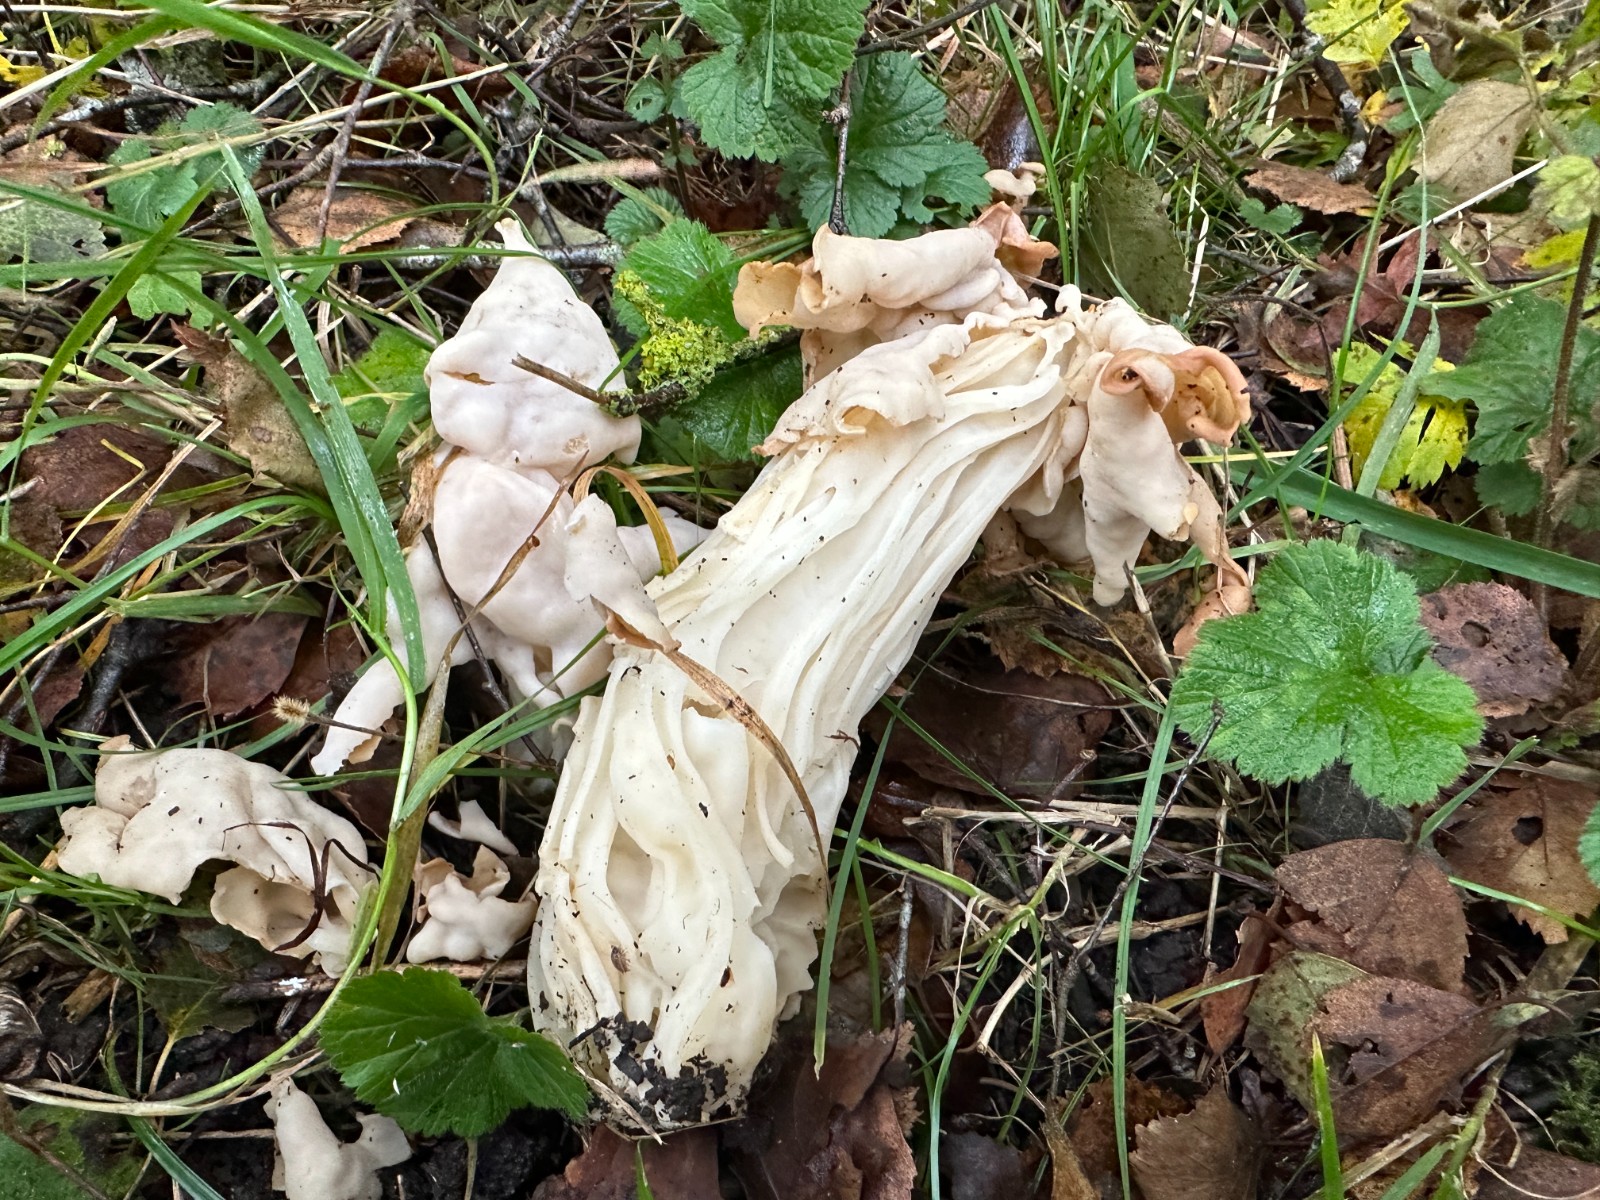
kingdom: Fungi
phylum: Ascomycota
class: Pezizomycetes
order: Pezizales
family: Helvellaceae
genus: Helvella
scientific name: Helvella crispa
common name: kruset foldhat
